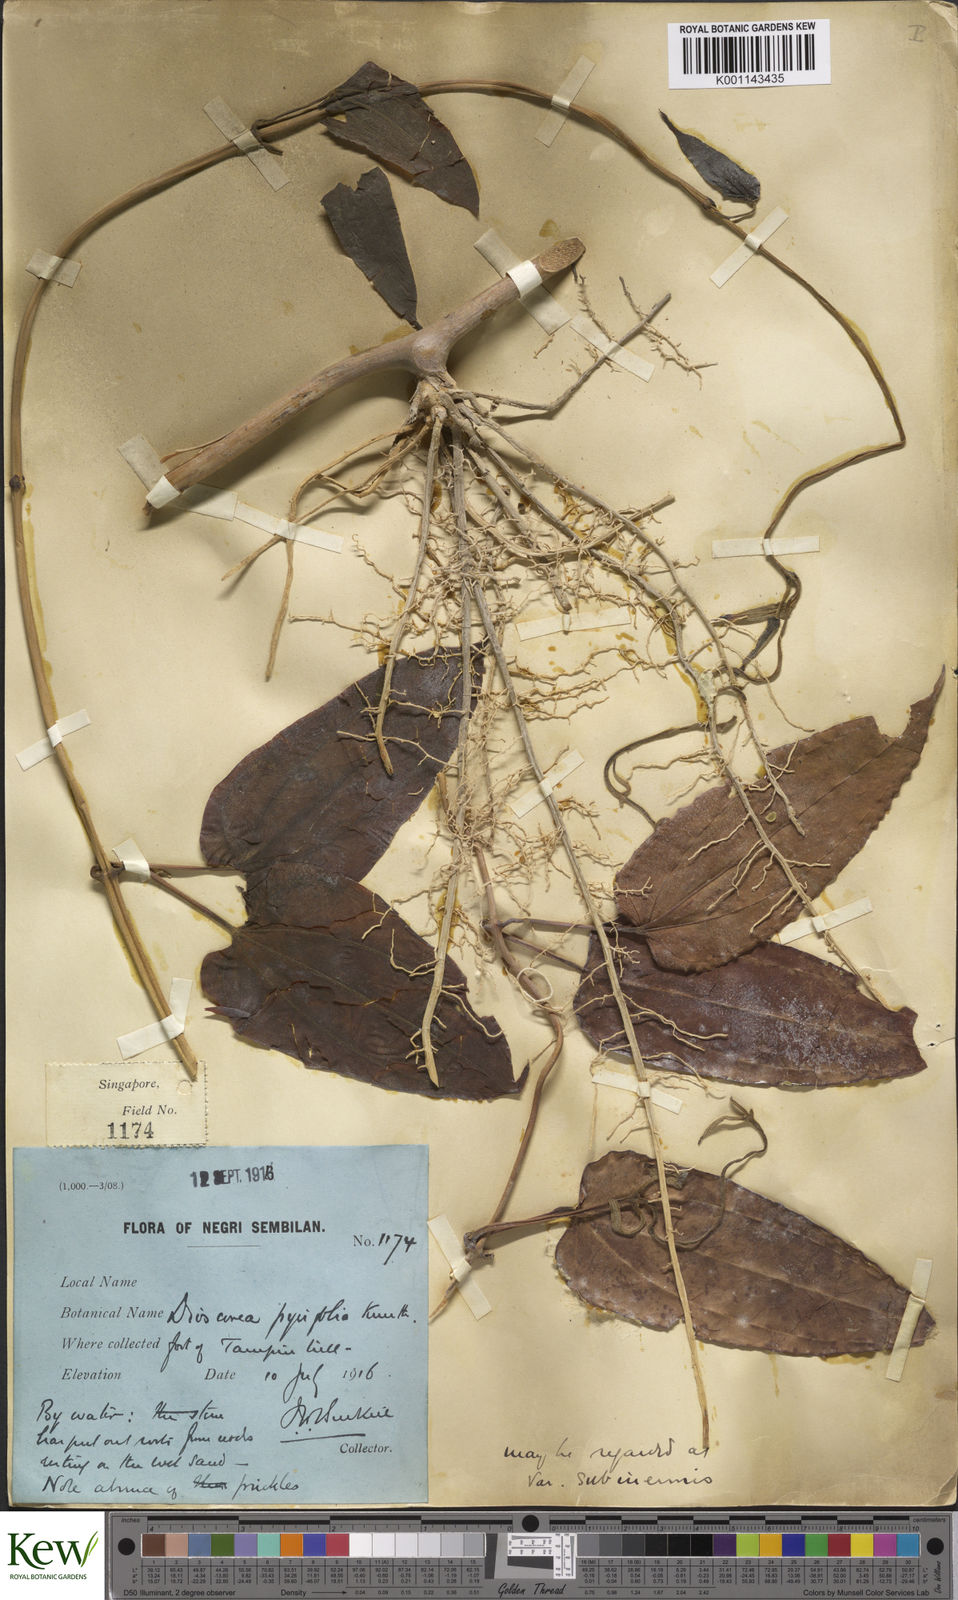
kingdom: Plantae
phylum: Tracheophyta
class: Liliopsida
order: Dioscoreales
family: Dioscoreaceae
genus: Dioscorea
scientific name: Dioscorea pyrifolia
